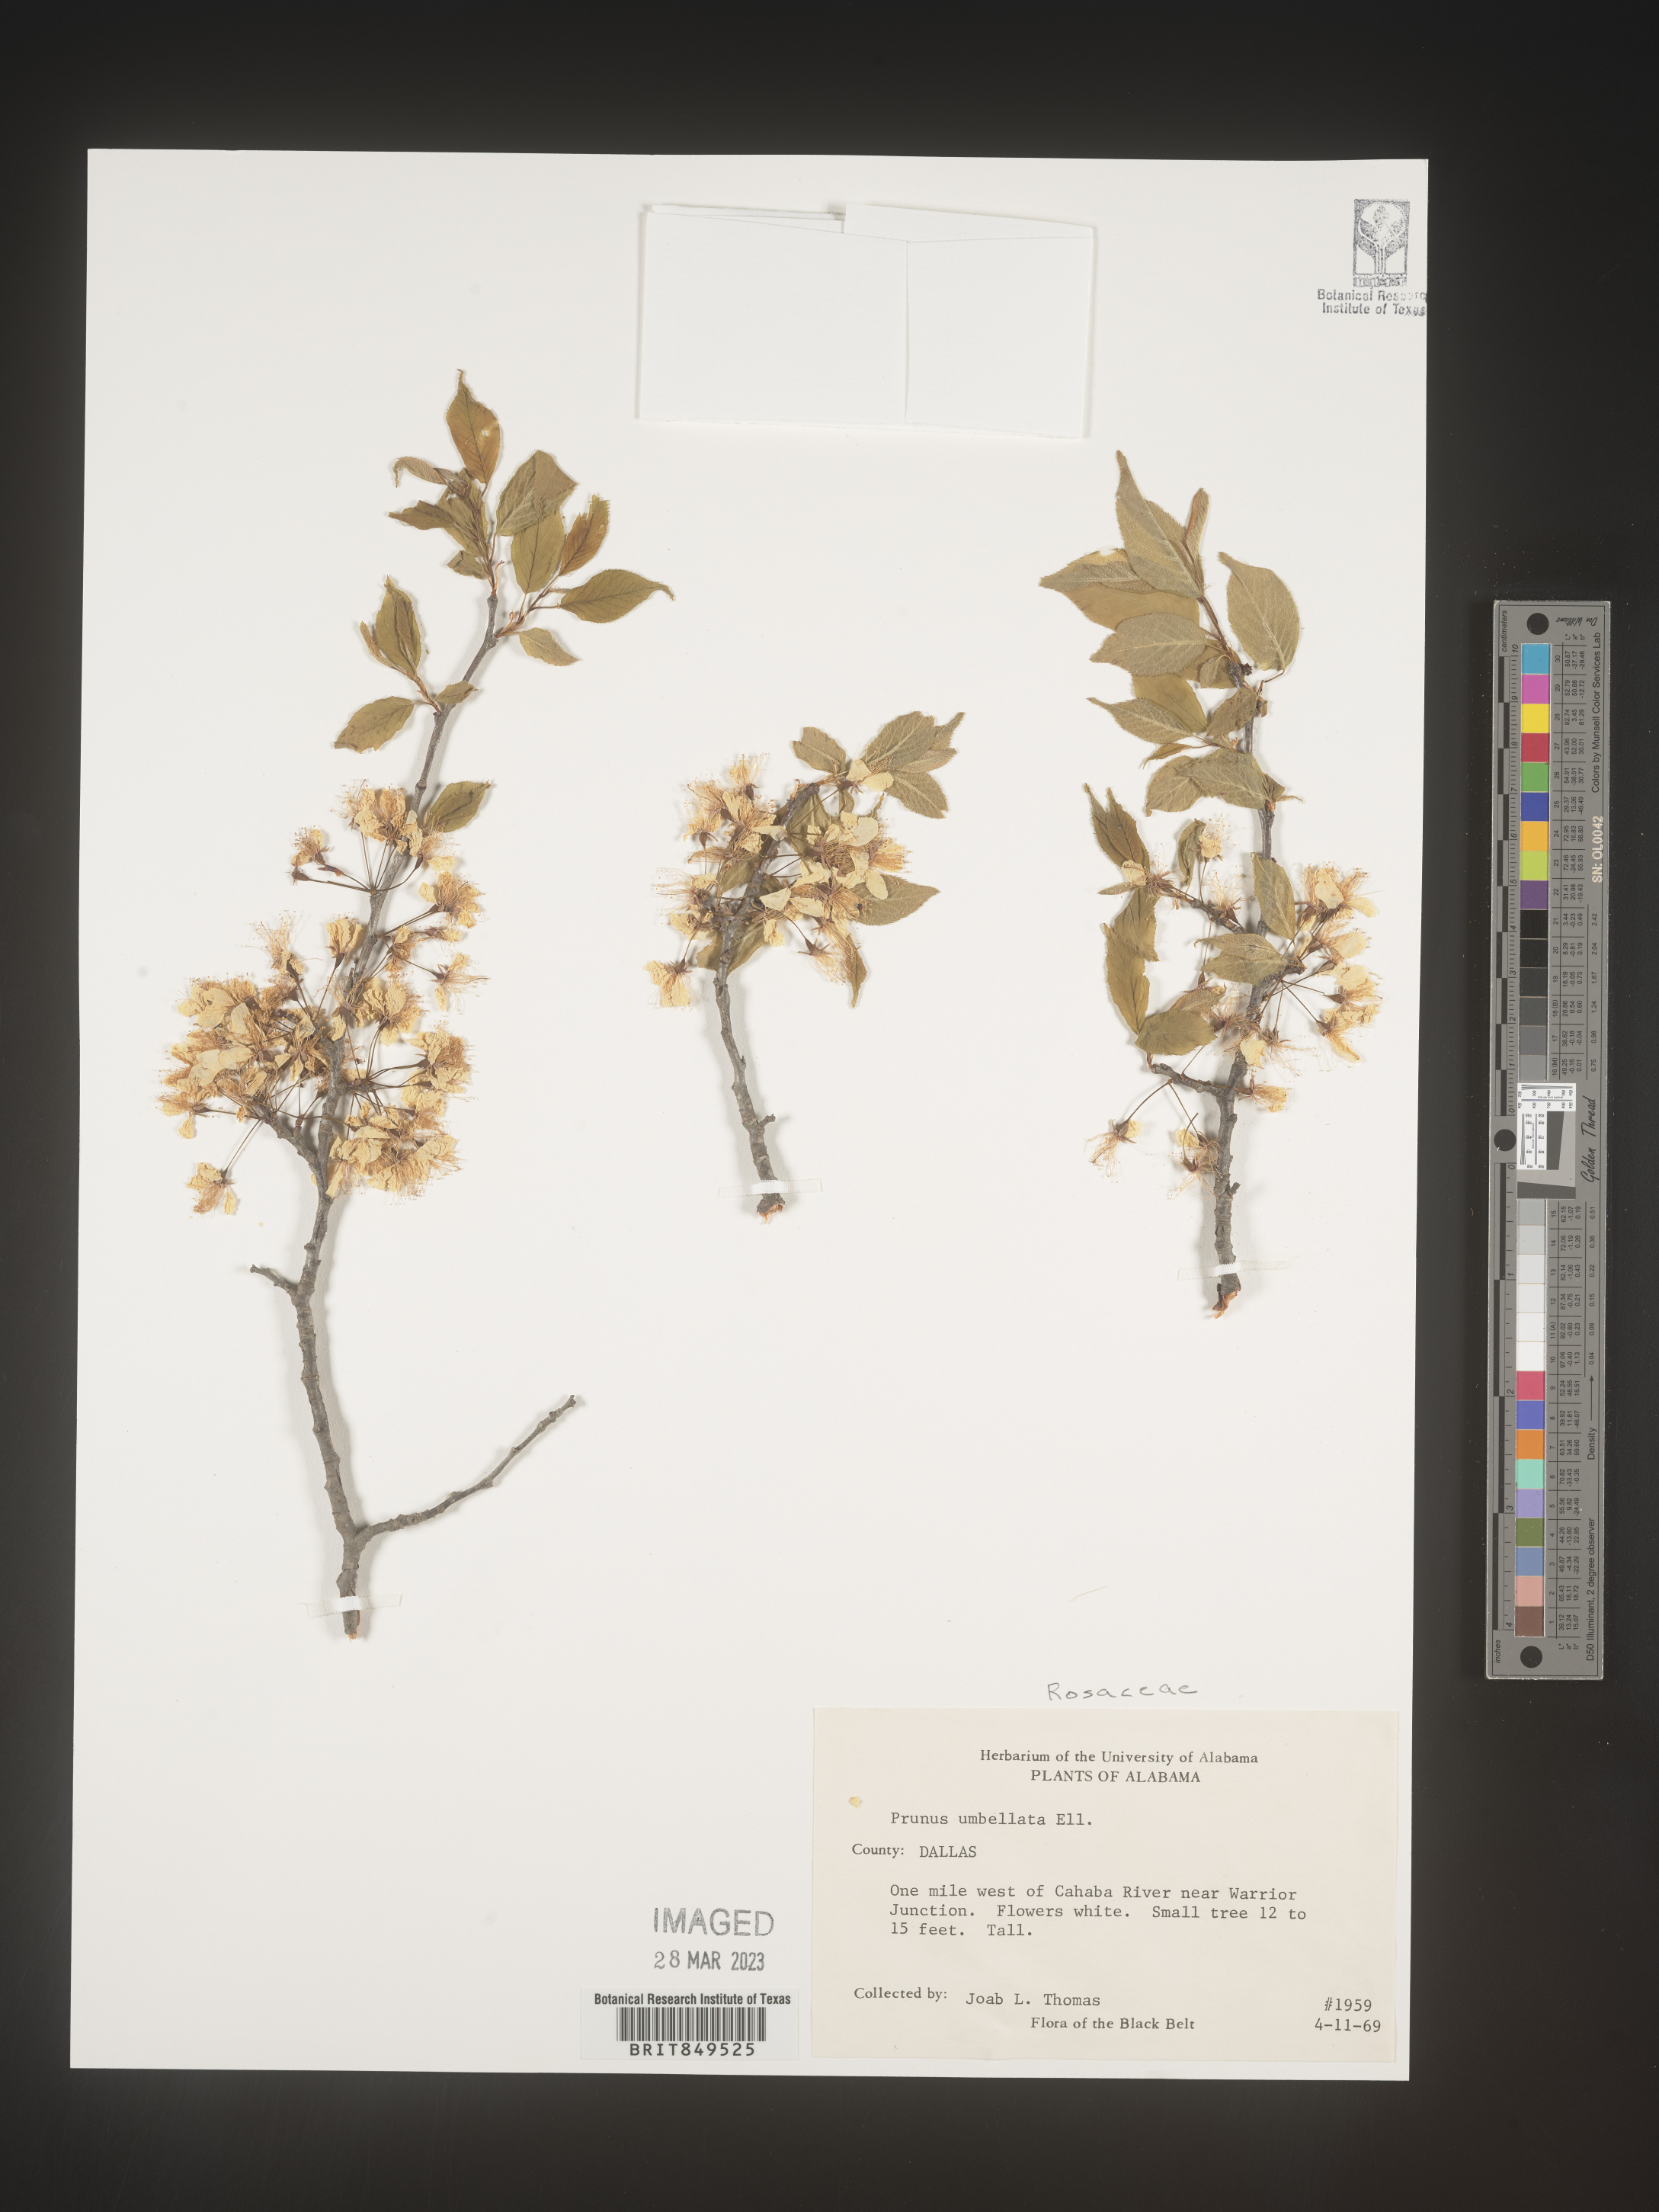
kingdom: Plantae
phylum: Tracheophyta
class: Magnoliopsida
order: Rosales
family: Rosaceae
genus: Prunus
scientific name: Prunus umbellata
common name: Allegheny plum
